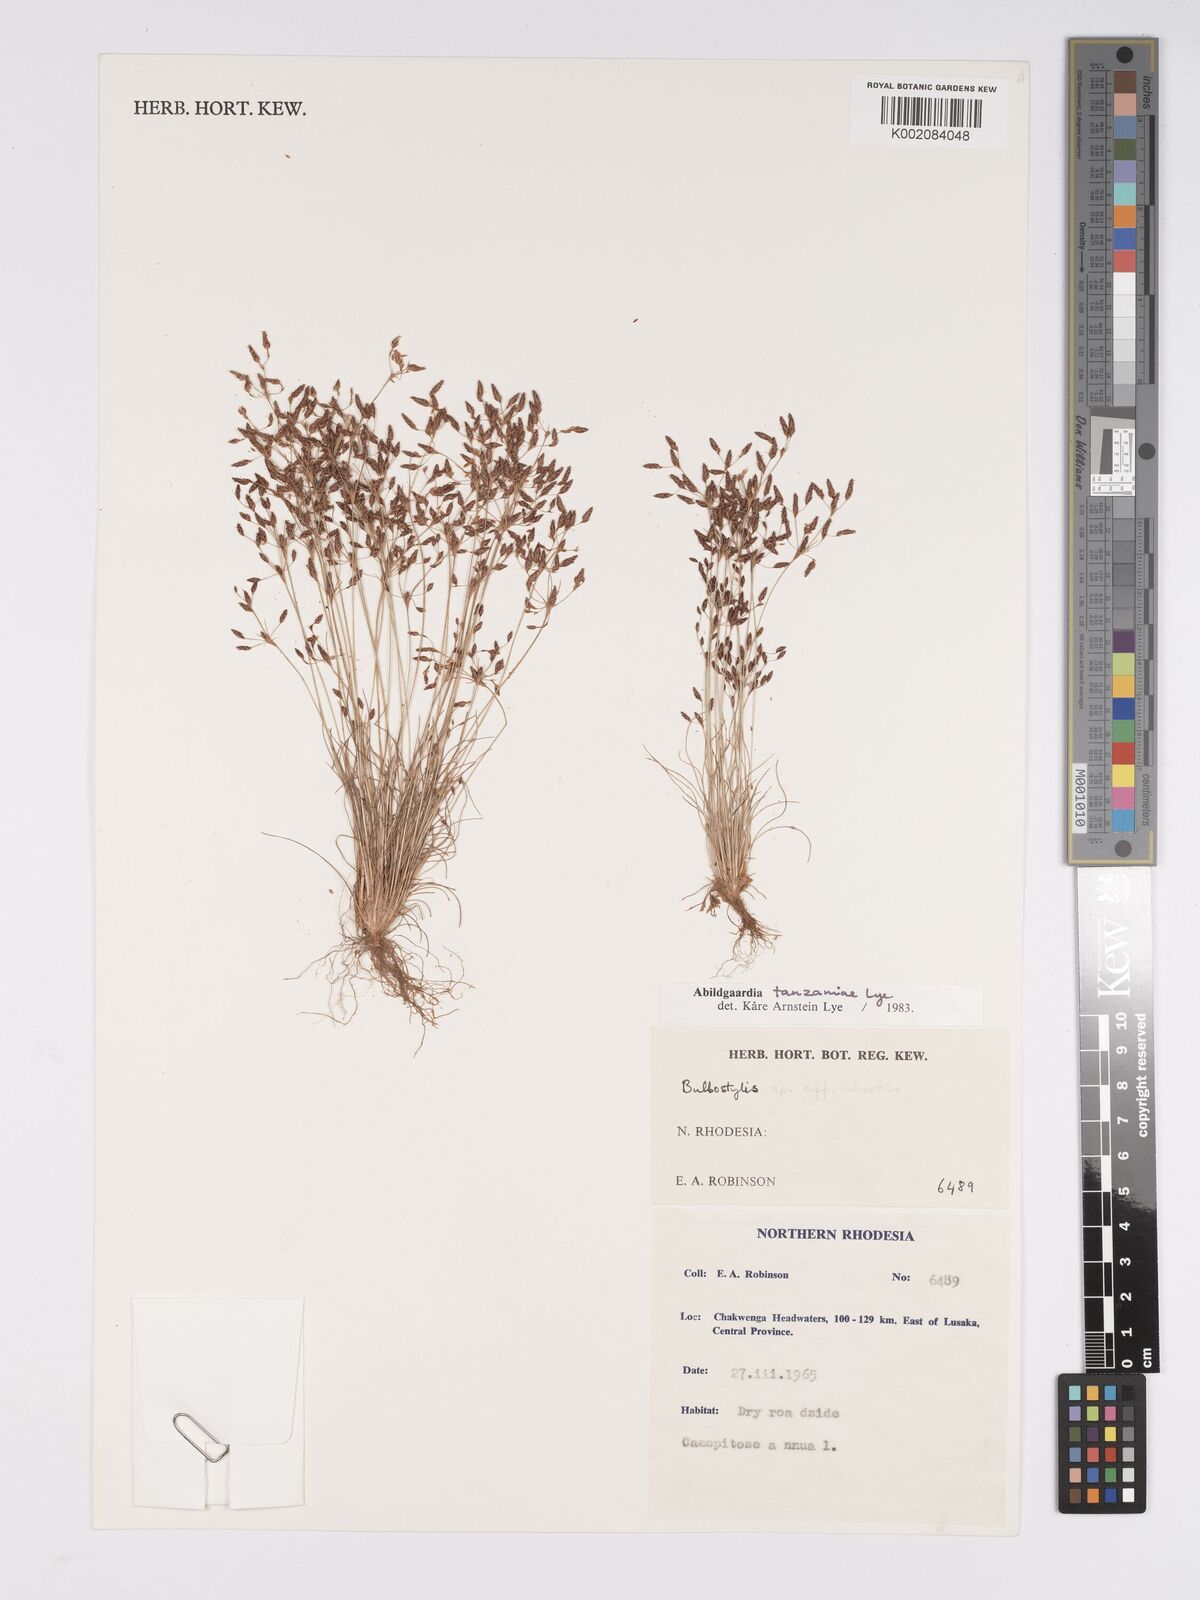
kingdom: Plantae
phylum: Tracheophyta
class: Liliopsida
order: Poales
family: Cyperaceae
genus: Bulbostylis
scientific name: Bulbostylis tanzaniae
